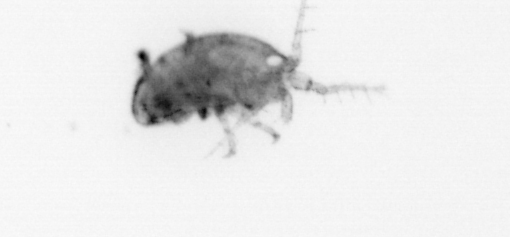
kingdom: Animalia
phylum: Arthropoda
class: Arachnida
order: Trombidiformes
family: Halacaridae
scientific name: Halacaridae
